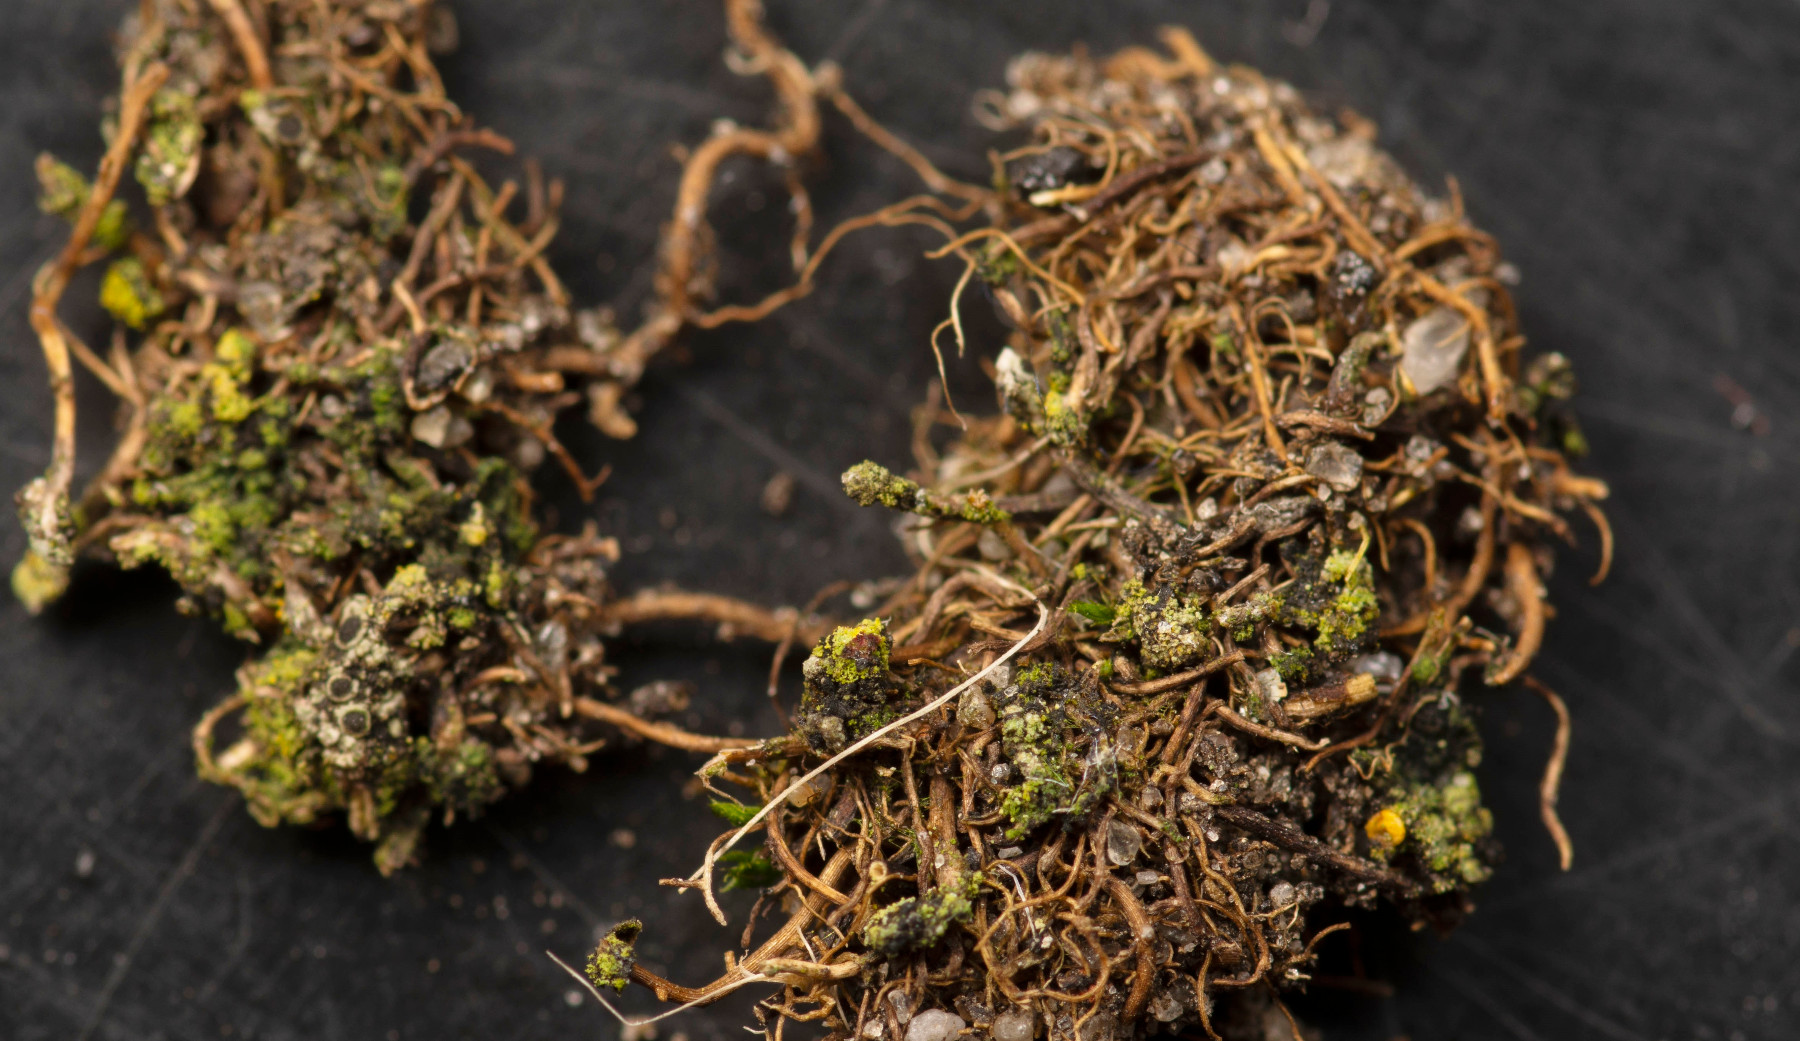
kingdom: Fungi
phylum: Ascomycota
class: Lecanoromycetes
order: Teloschistales
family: Teloschistaceae
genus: Flavoplaca
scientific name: Flavoplaca citrina
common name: støvet orangelav
